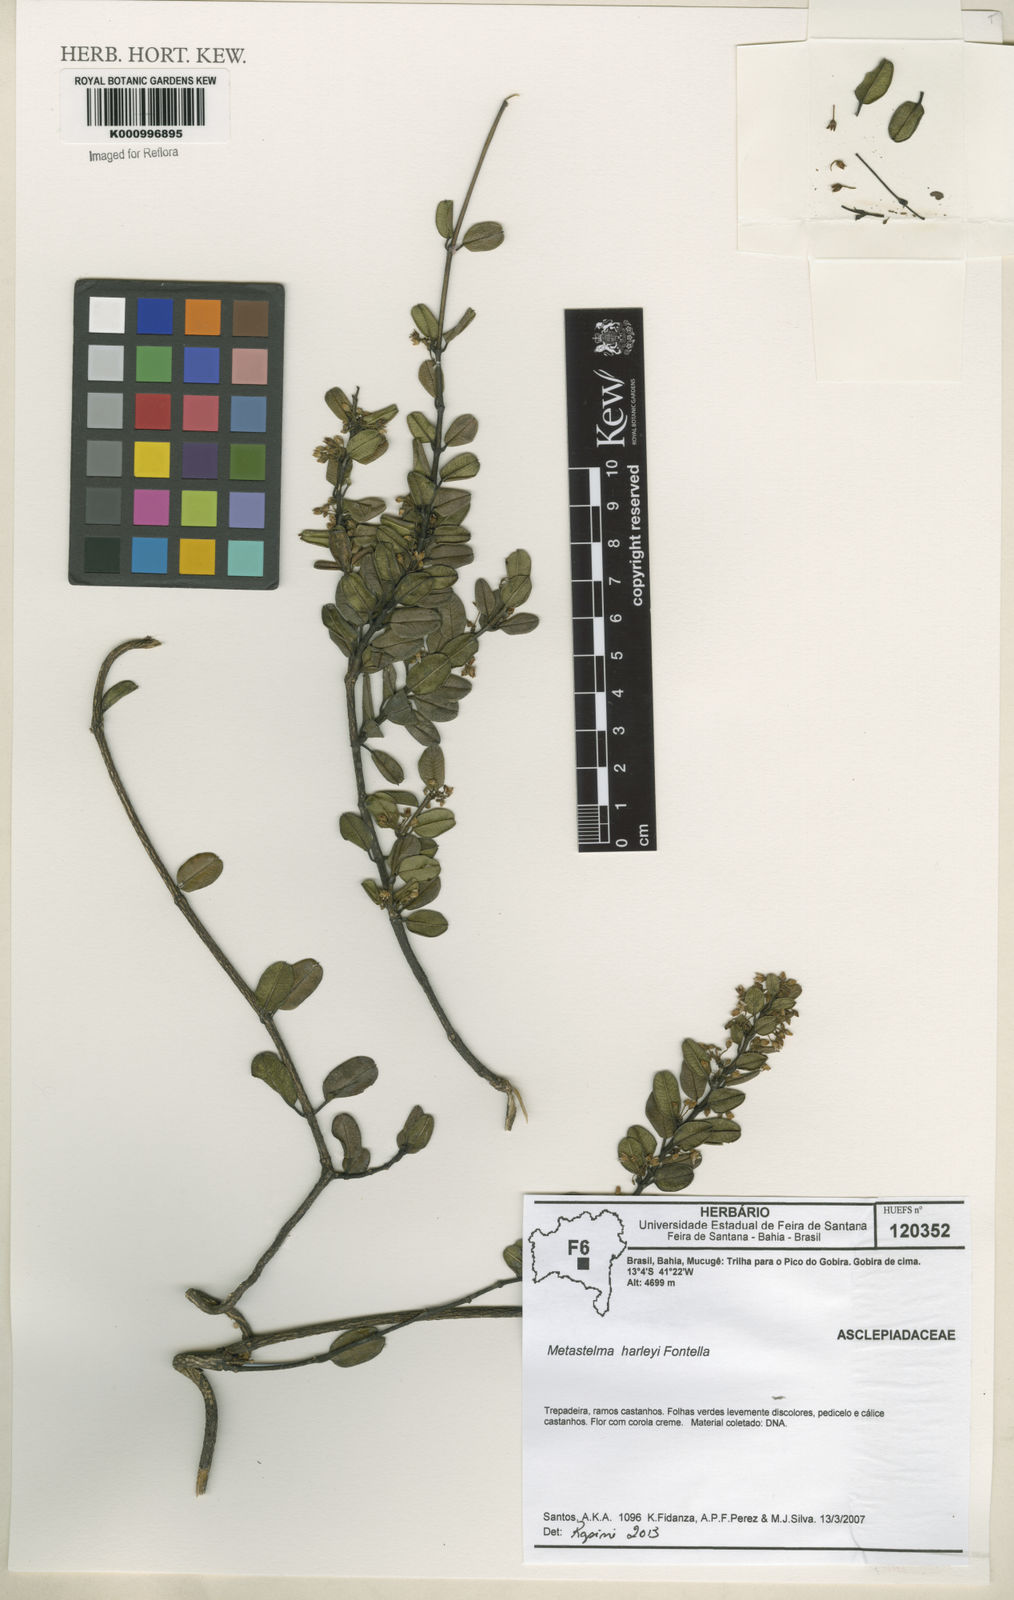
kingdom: Plantae
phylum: Tracheophyta
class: Magnoliopsida
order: Gentianales
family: Apocynaceae
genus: Metastelma
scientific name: Metastelma harleyi
